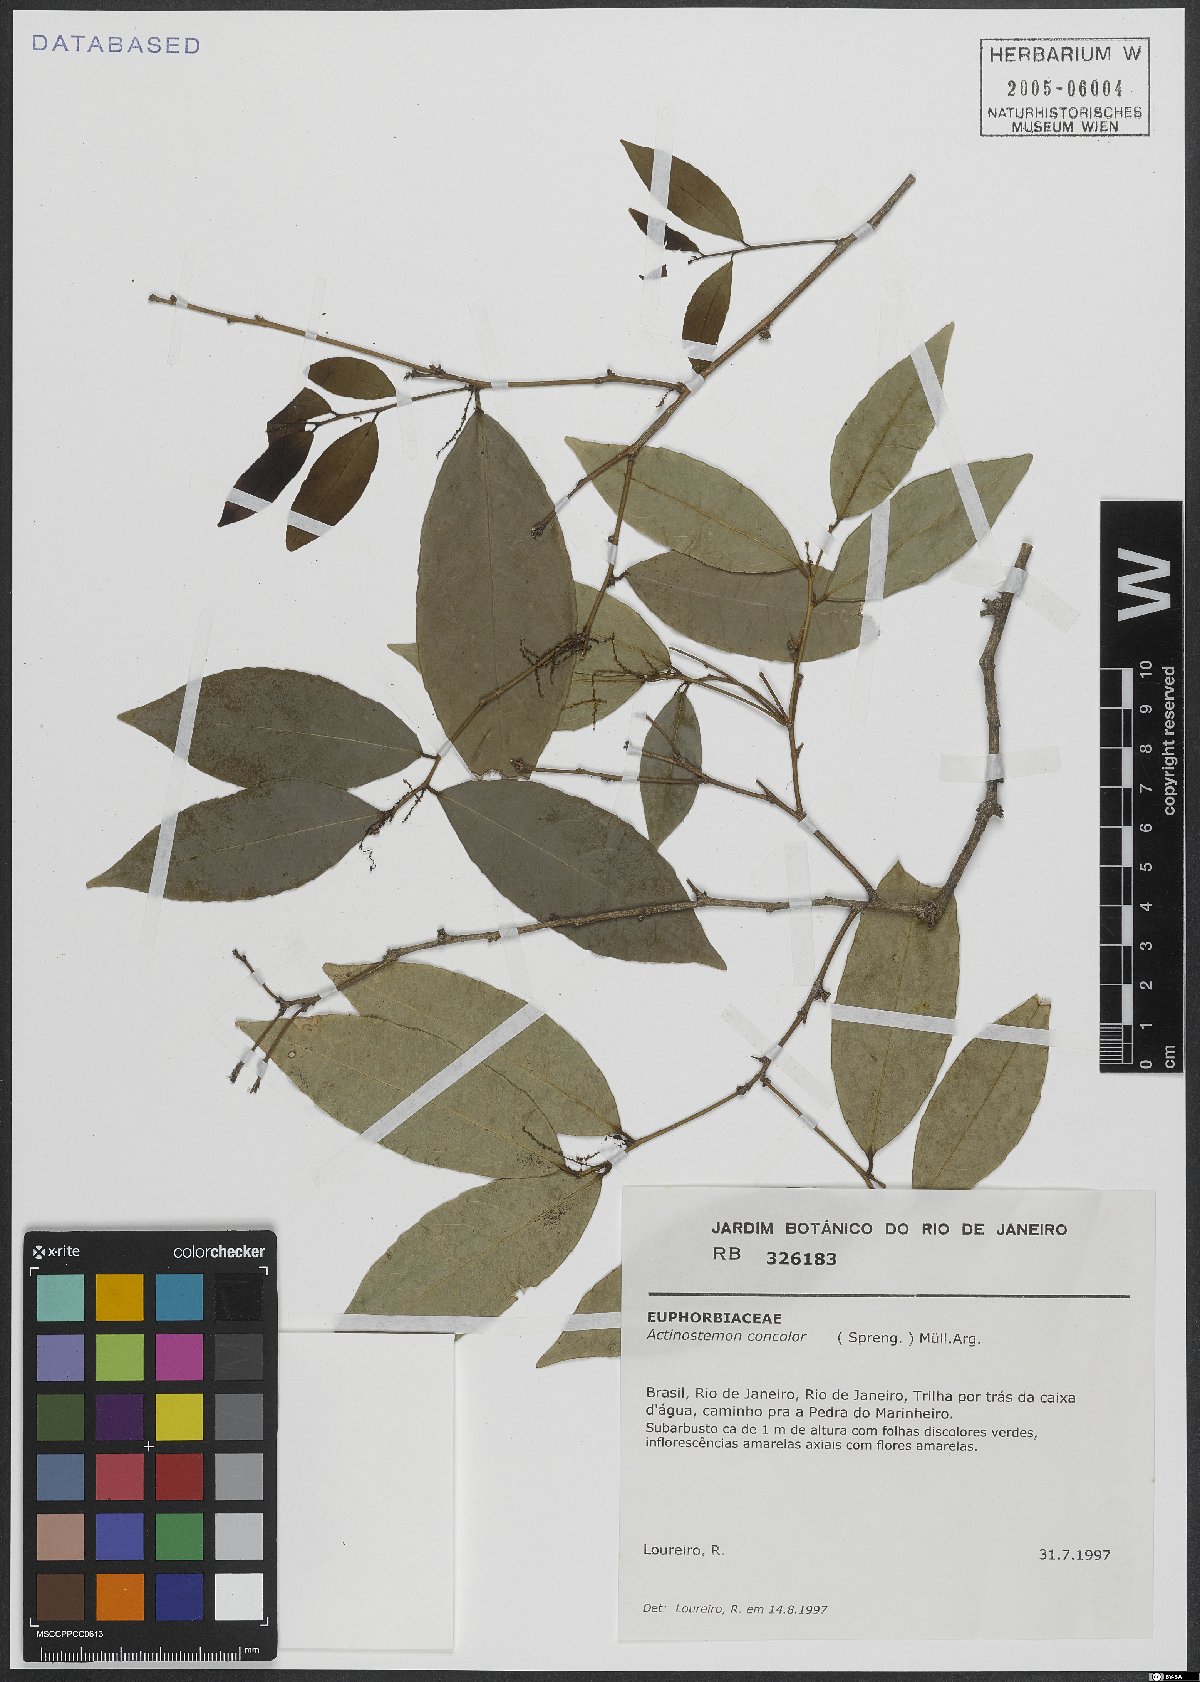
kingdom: Plantae
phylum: Tracheophyta
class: Magnoliopsida
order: Malpighiales
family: Euphorbiaceae
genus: Actinostemon
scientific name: Actinostemon concolor
